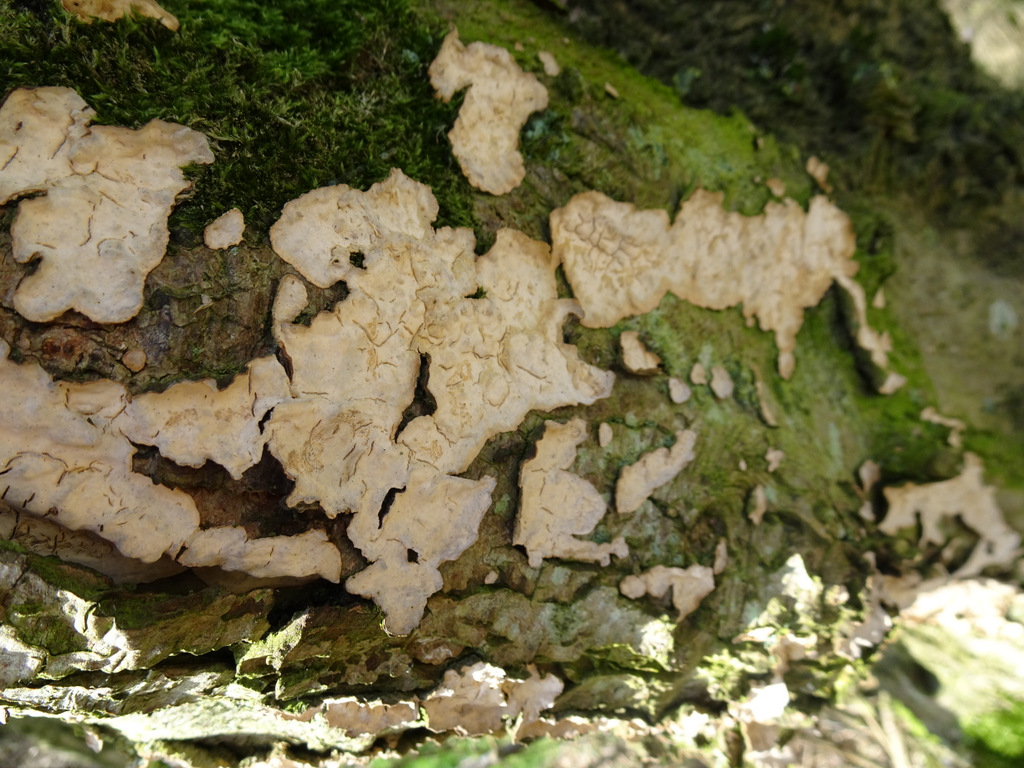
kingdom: Fungi
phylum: Basidiomycota
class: Agaricomycetes
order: Agaricales
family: Physalacriaceae
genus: Cylindrobasidium
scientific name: Cylindrobasidium evolvens
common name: sprækkehinde
